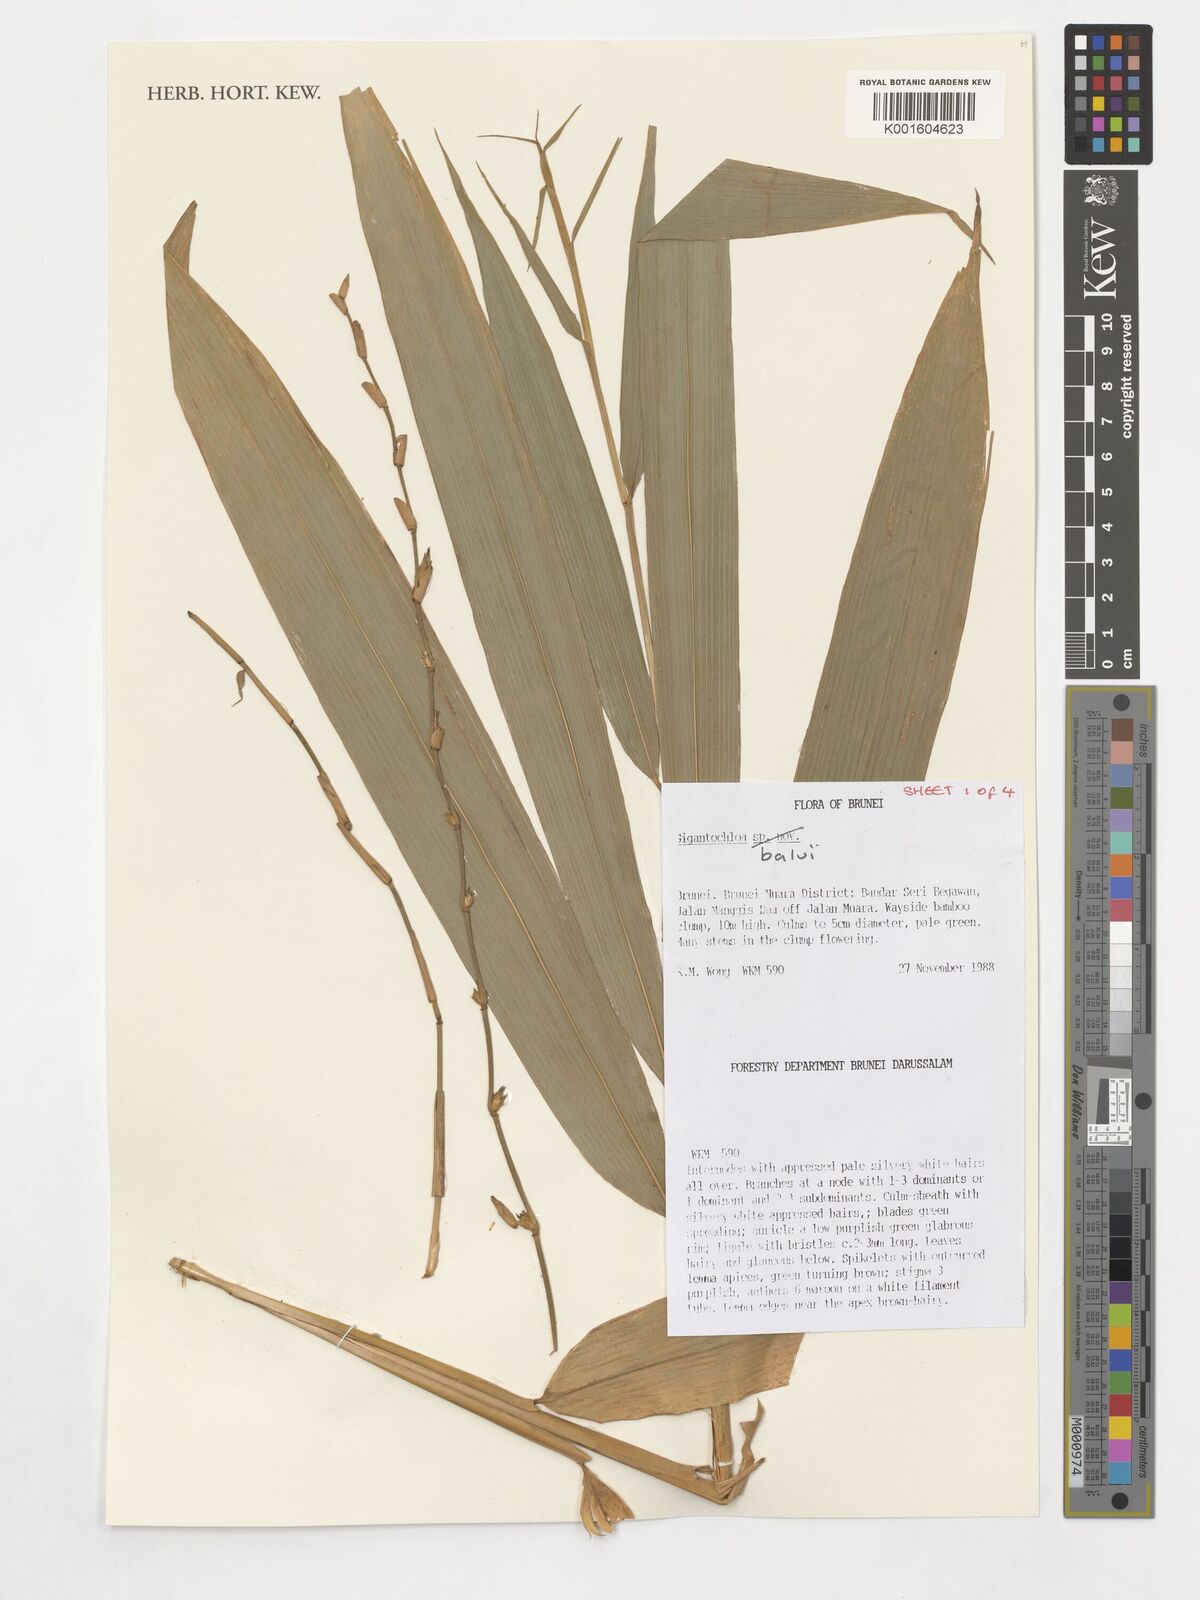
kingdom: Plantae
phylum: Tracheophyta
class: Liliopsida
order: Poales
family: Poaceae
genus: Gigantochloa
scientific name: Gigantochloa balui
